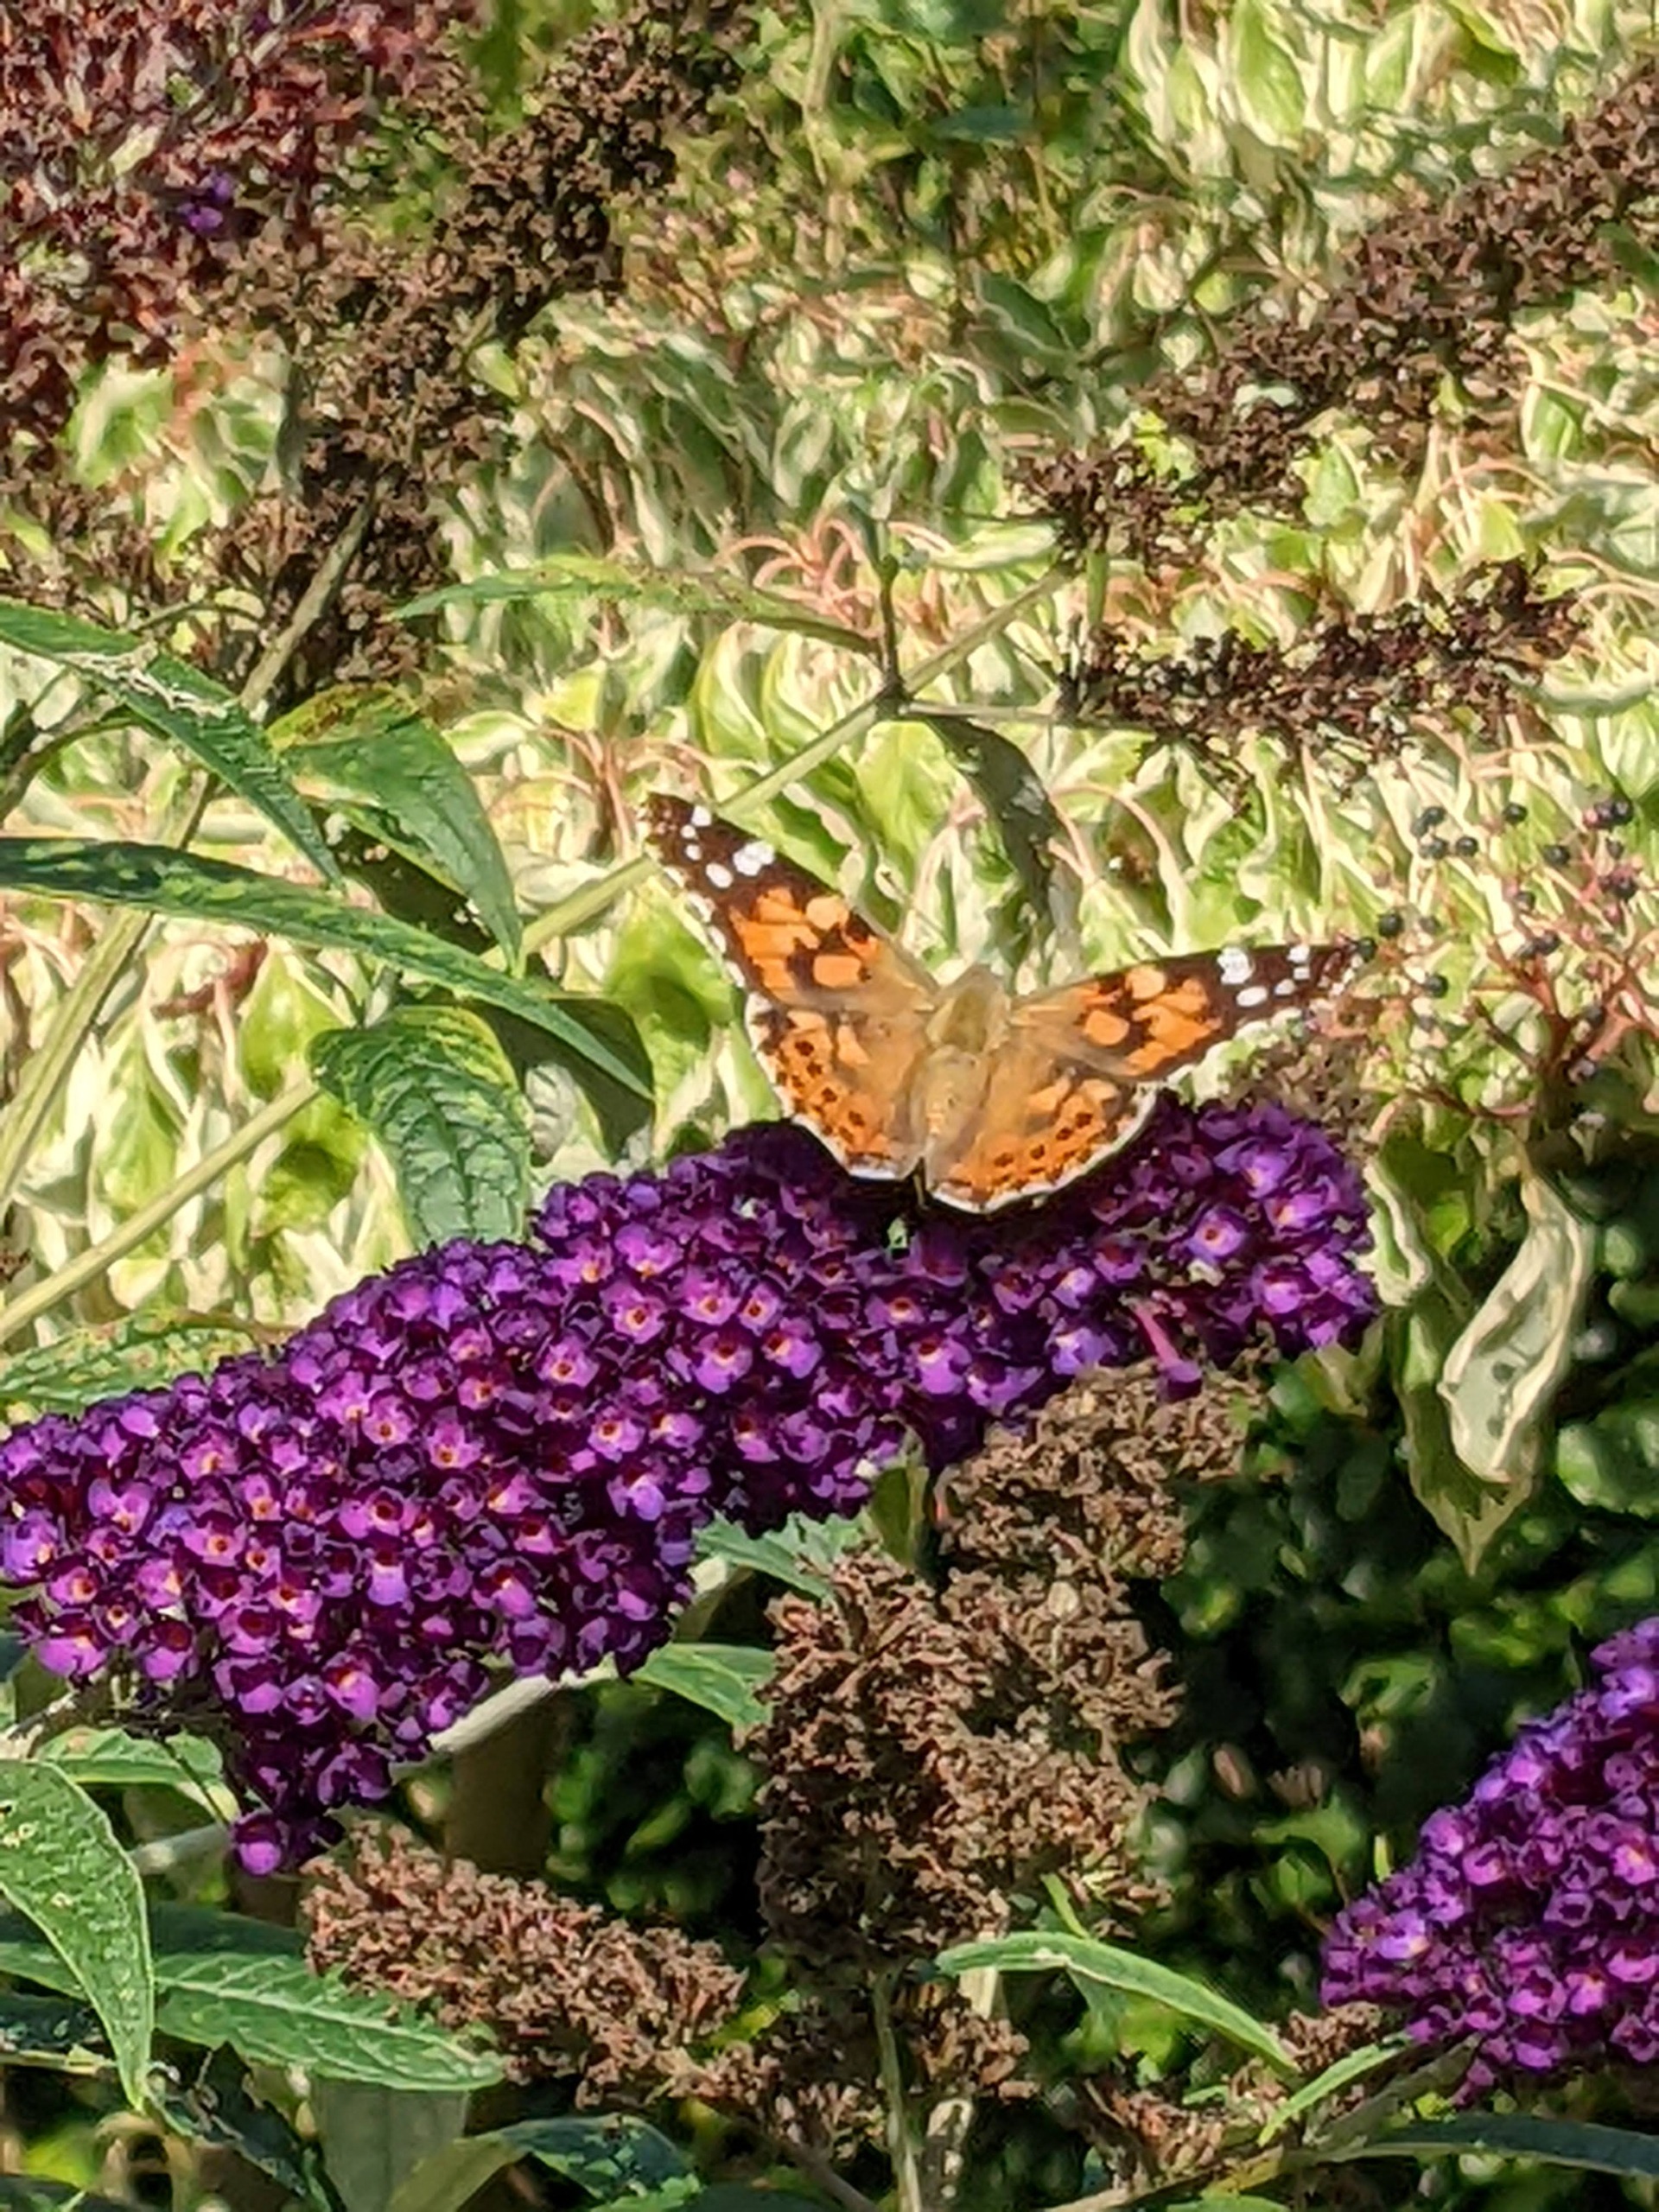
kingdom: Animalia
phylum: Arthropoda
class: Insecta
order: Lepidoptera
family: Nymphalidae
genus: Vanessa
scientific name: Vanessa cardui
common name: Tidselsommerfugl
